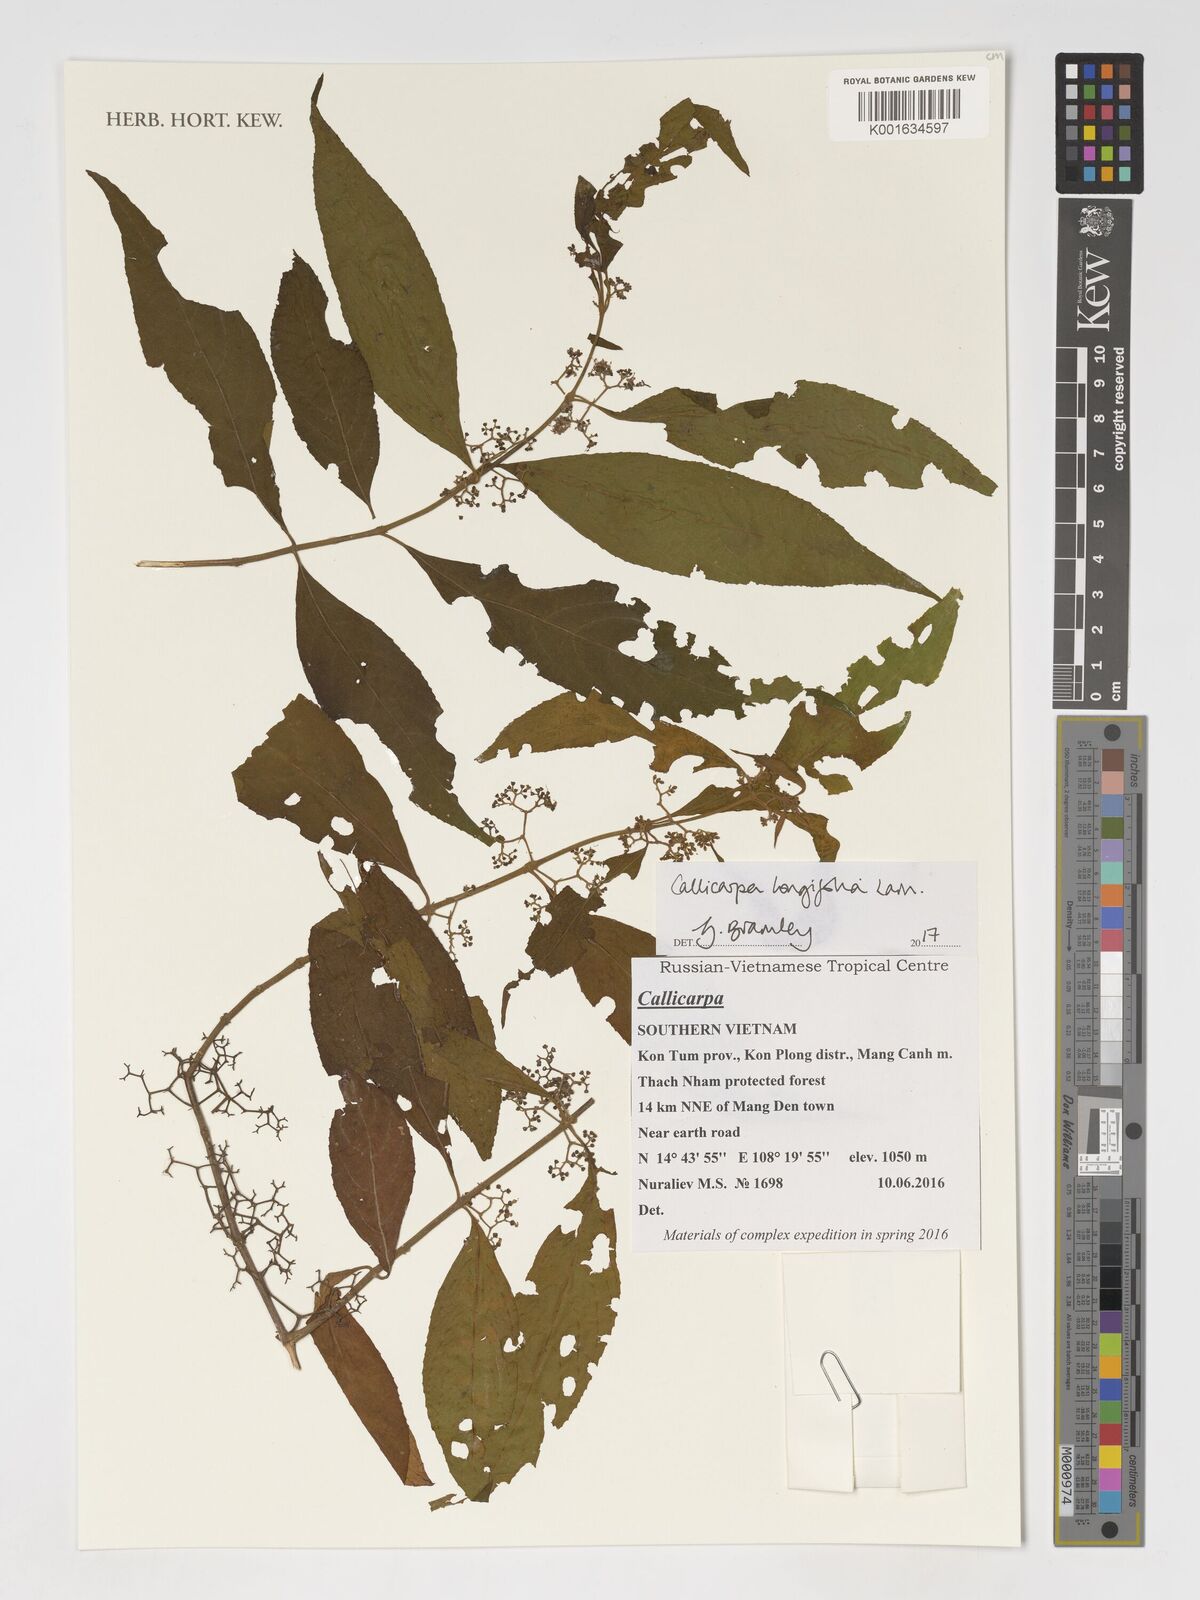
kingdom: Plantae
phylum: Tracheophyta
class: Magnoliopsida
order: Lamiales
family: Lamiaceae
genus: Callicarpa
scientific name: Callicarpa longifolia
